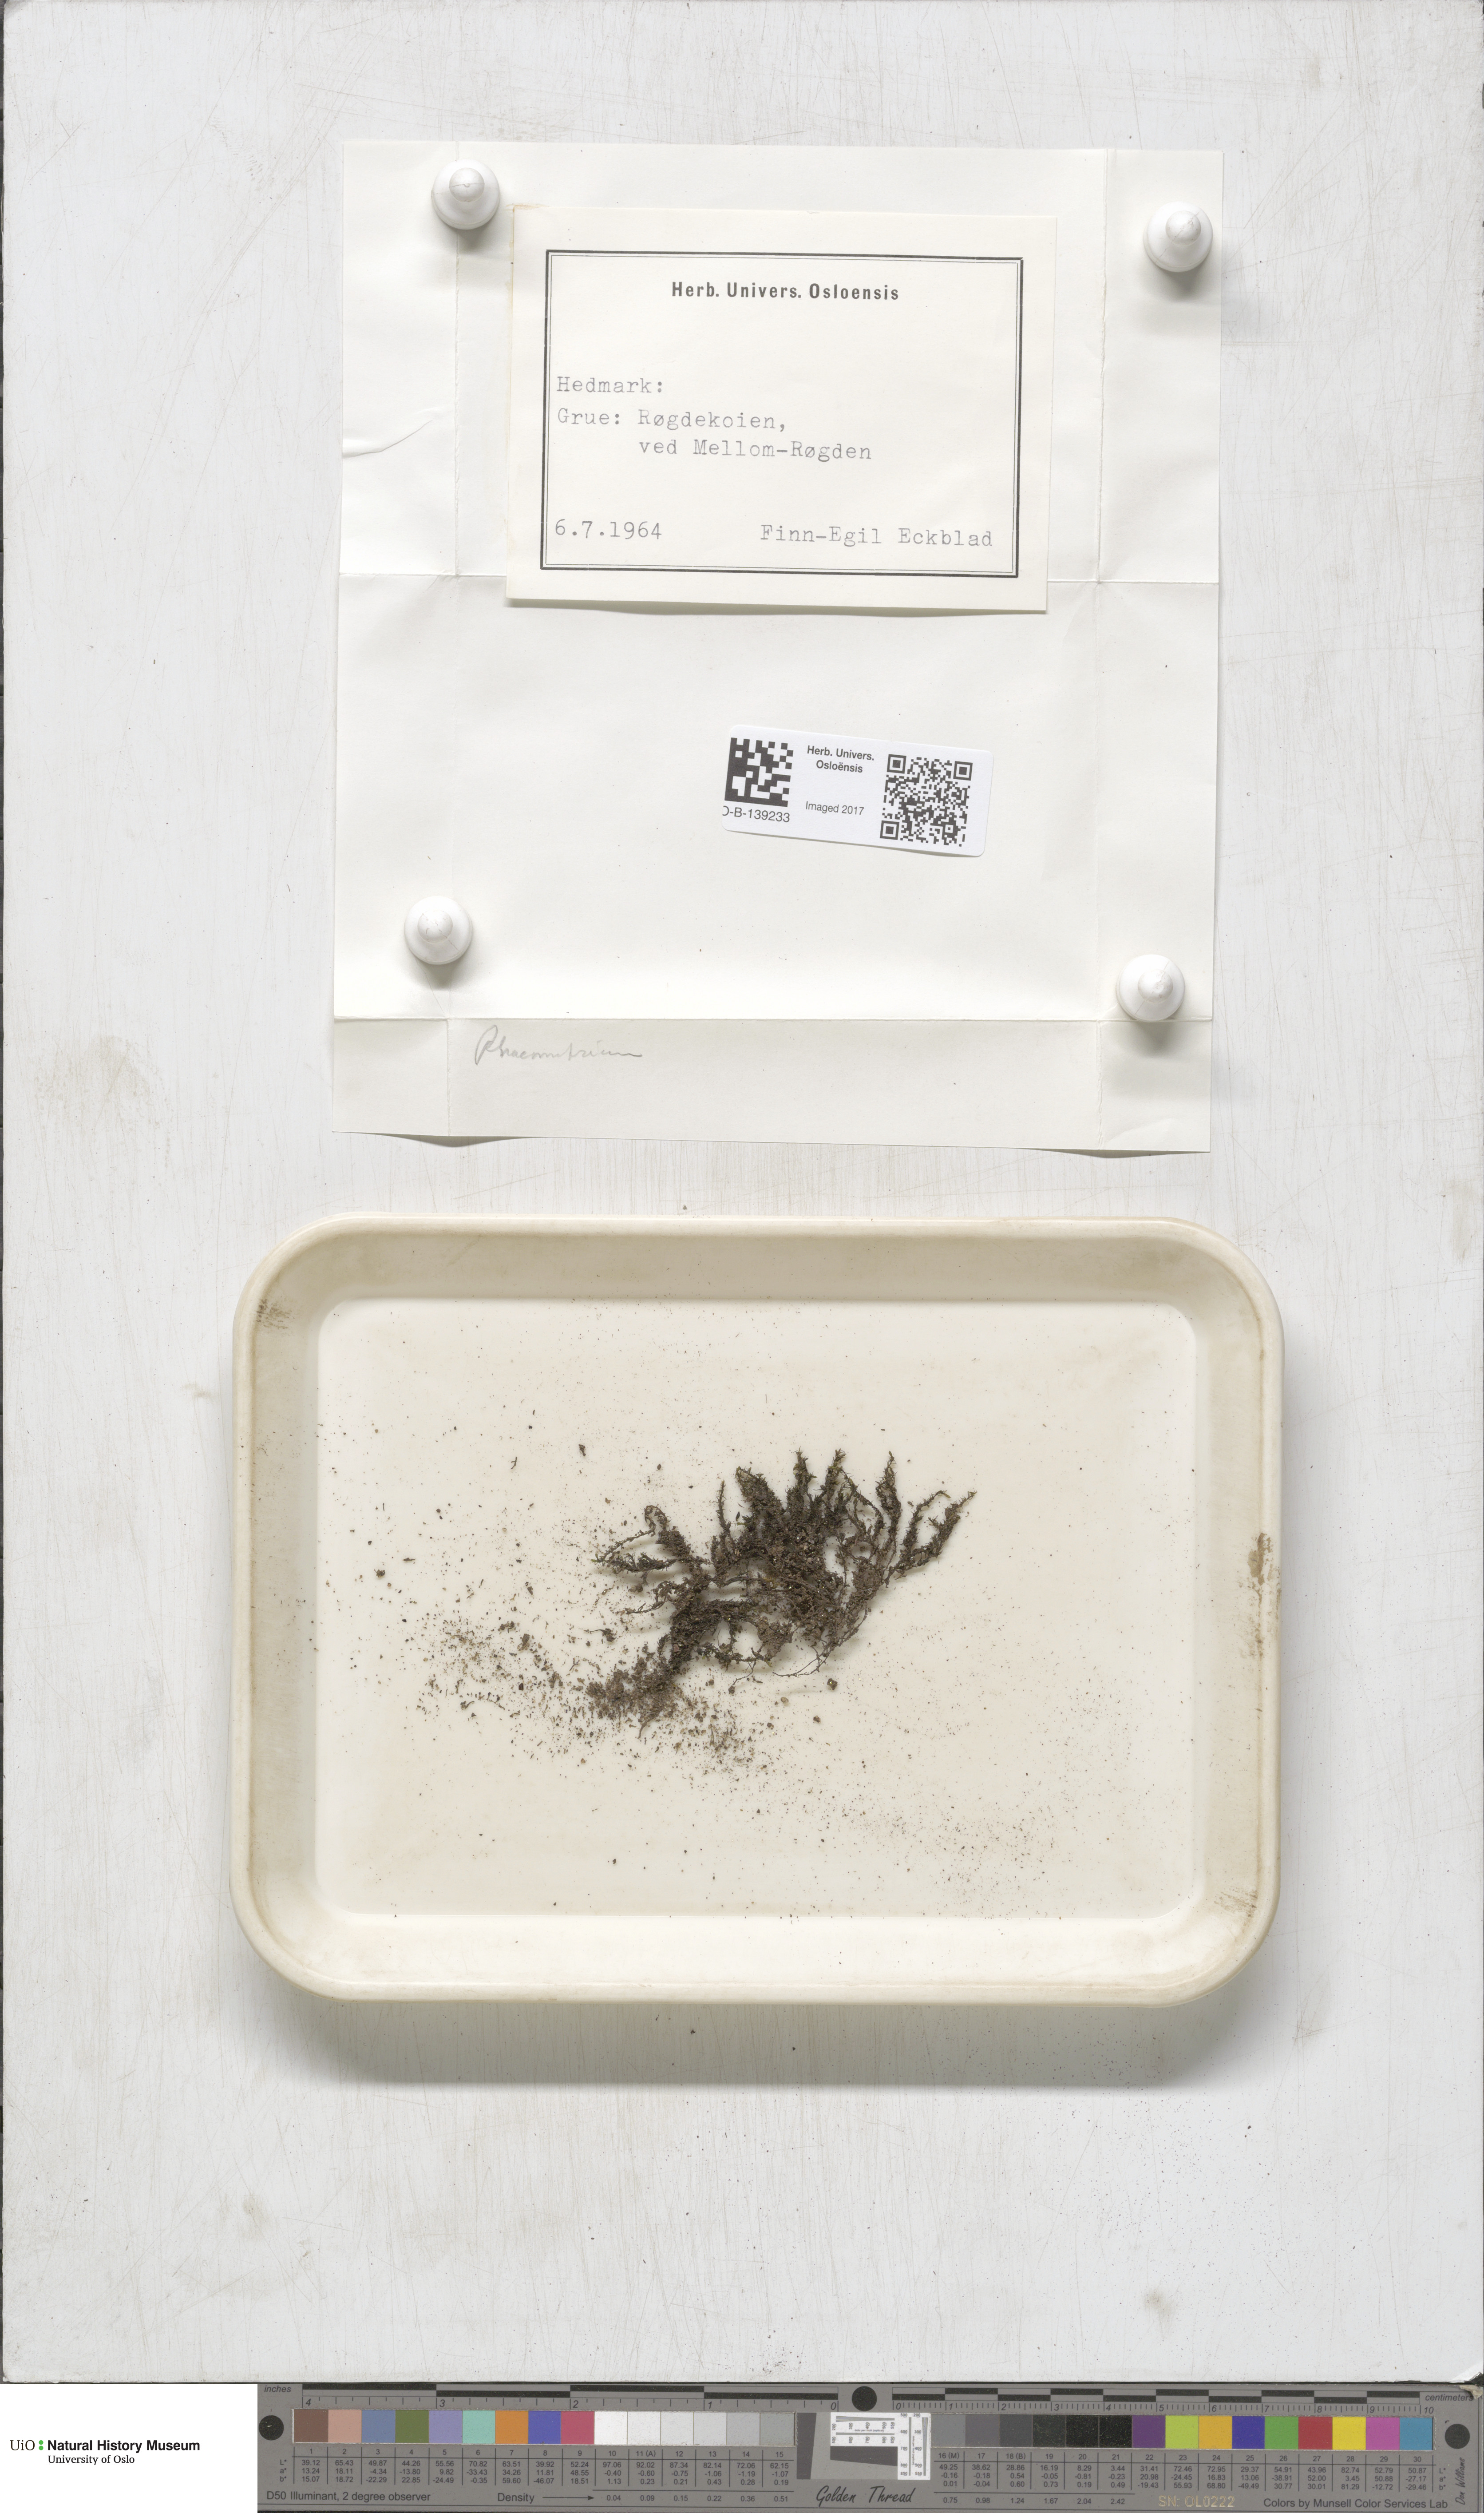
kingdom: Plantae
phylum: Bryophyta
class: Bryopsida
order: Grimmiales
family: Grimmiaceae
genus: Racomitrium
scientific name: Racomitrium
